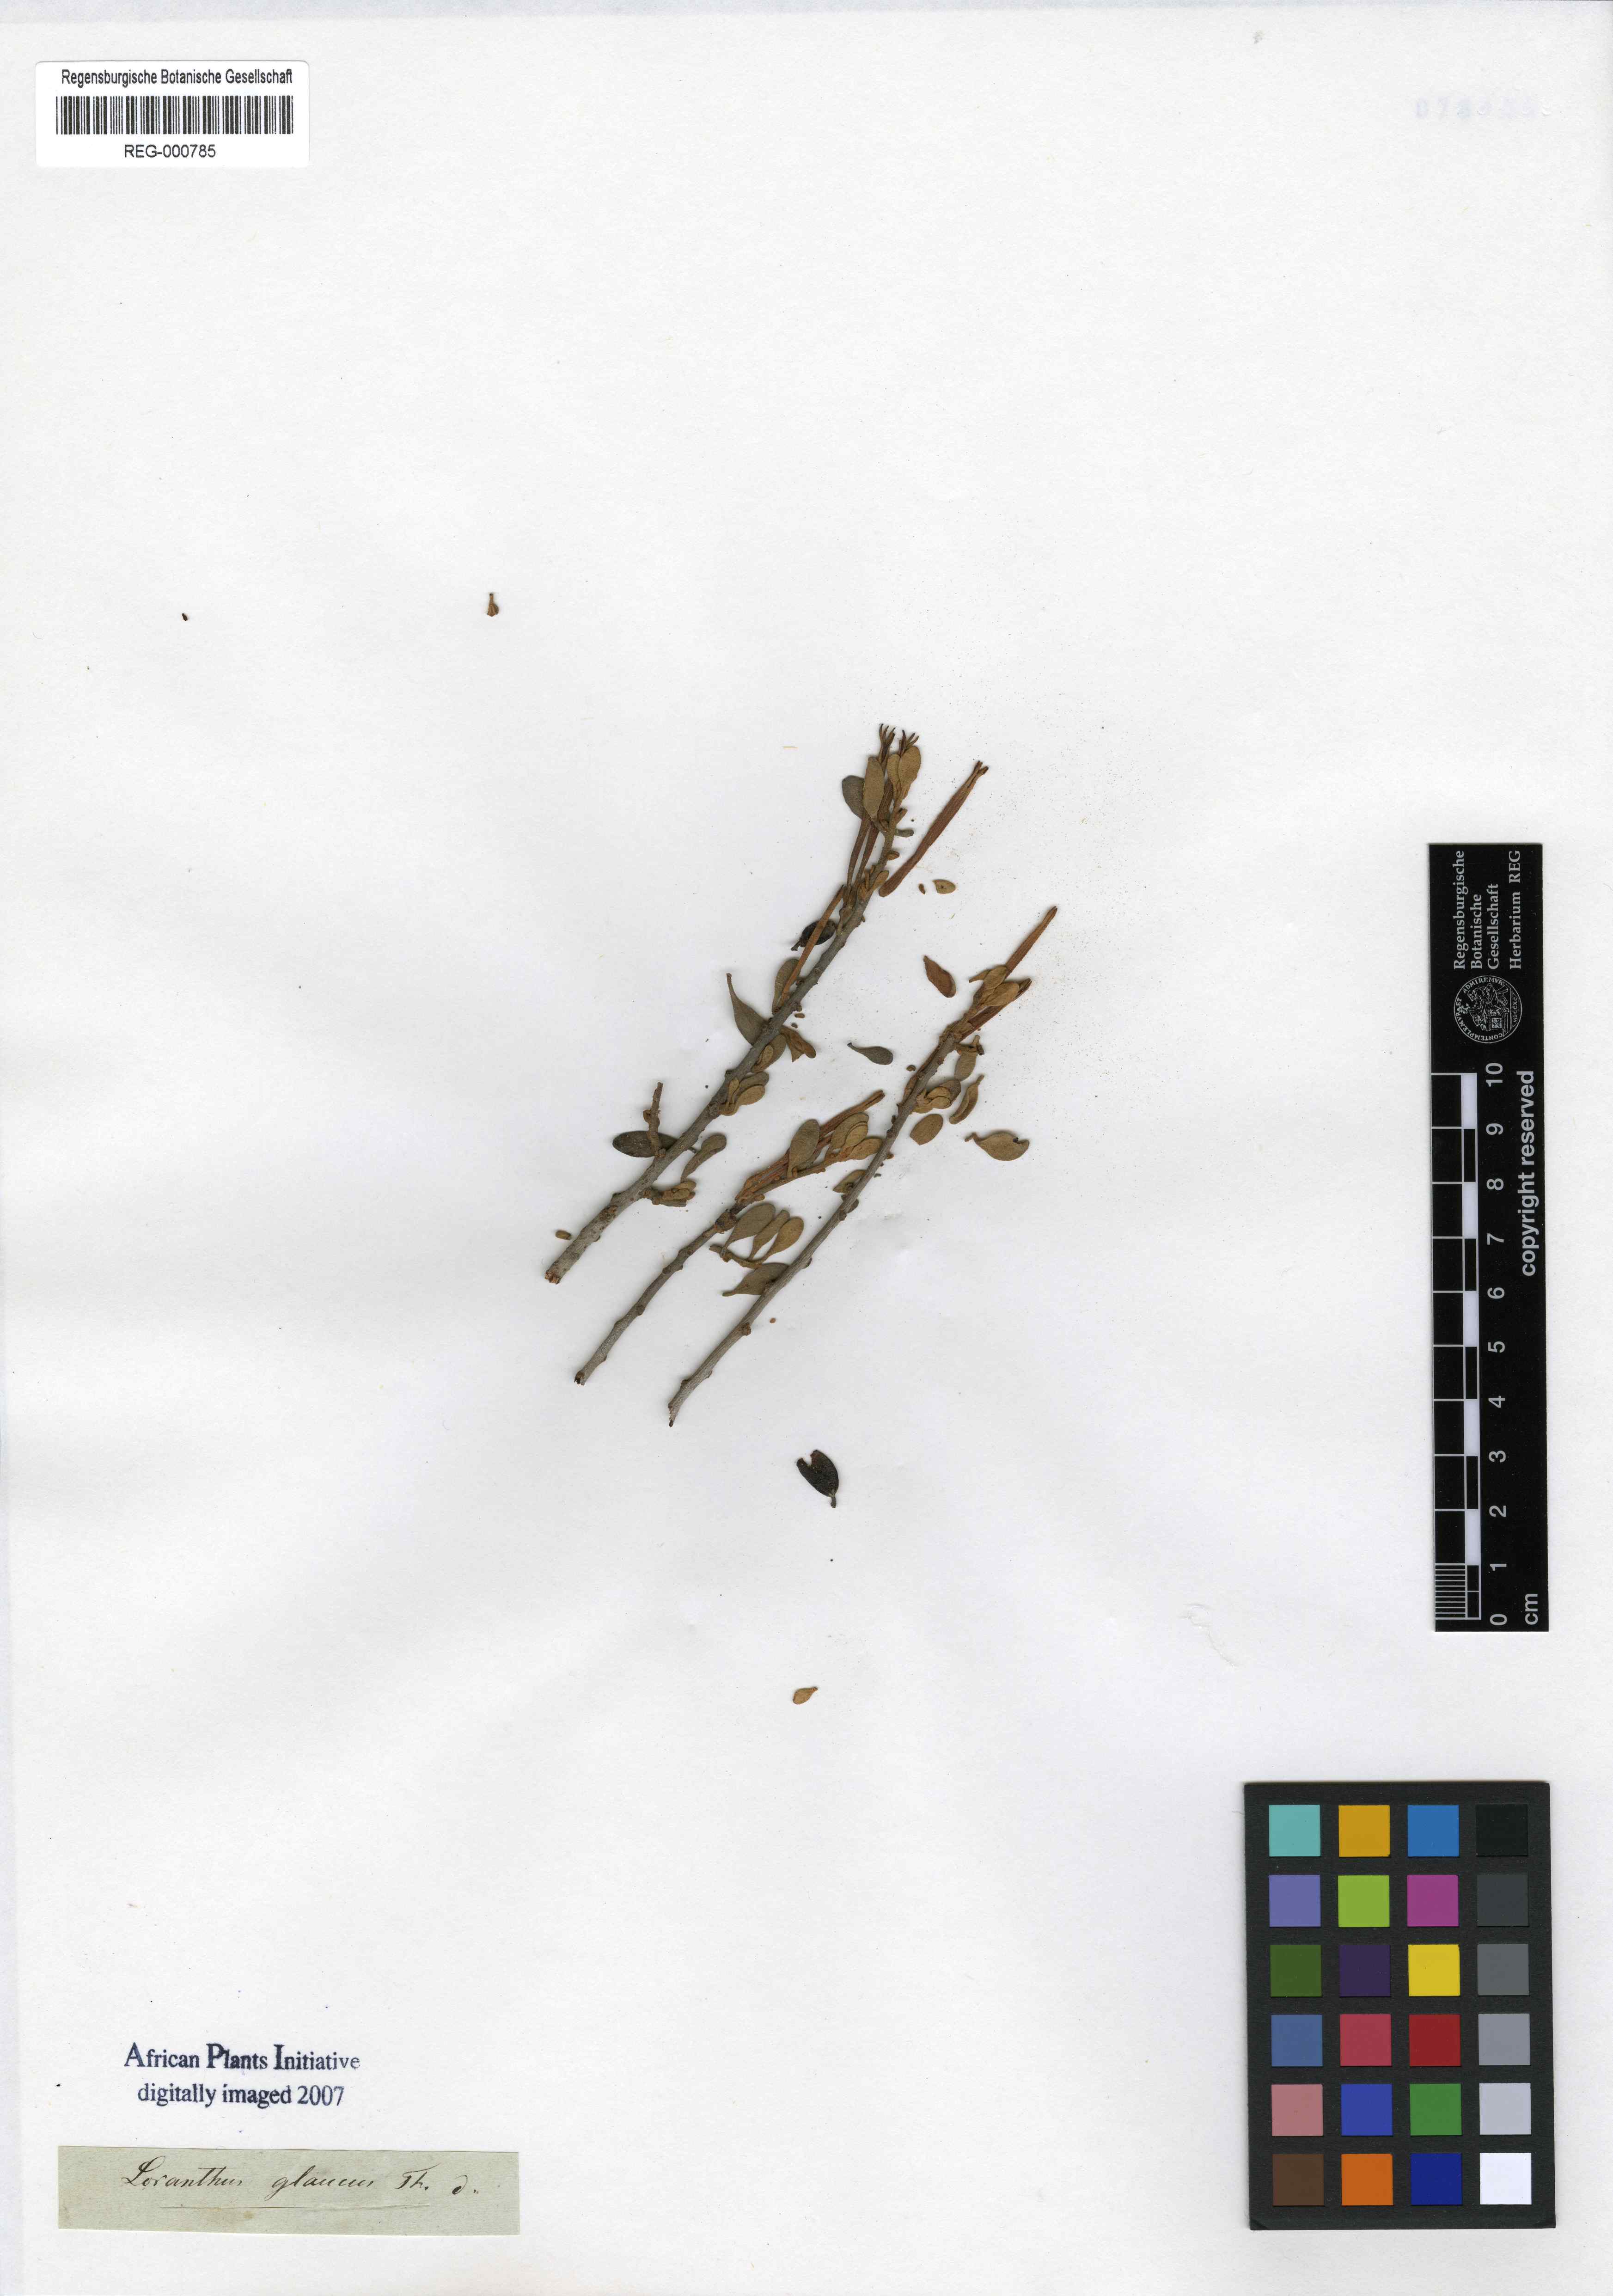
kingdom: Plantae
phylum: Tracheophyta
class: Magnoliopsida
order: Santalales
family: Loranthaceae
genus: Septulina
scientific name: Septulina glauca
